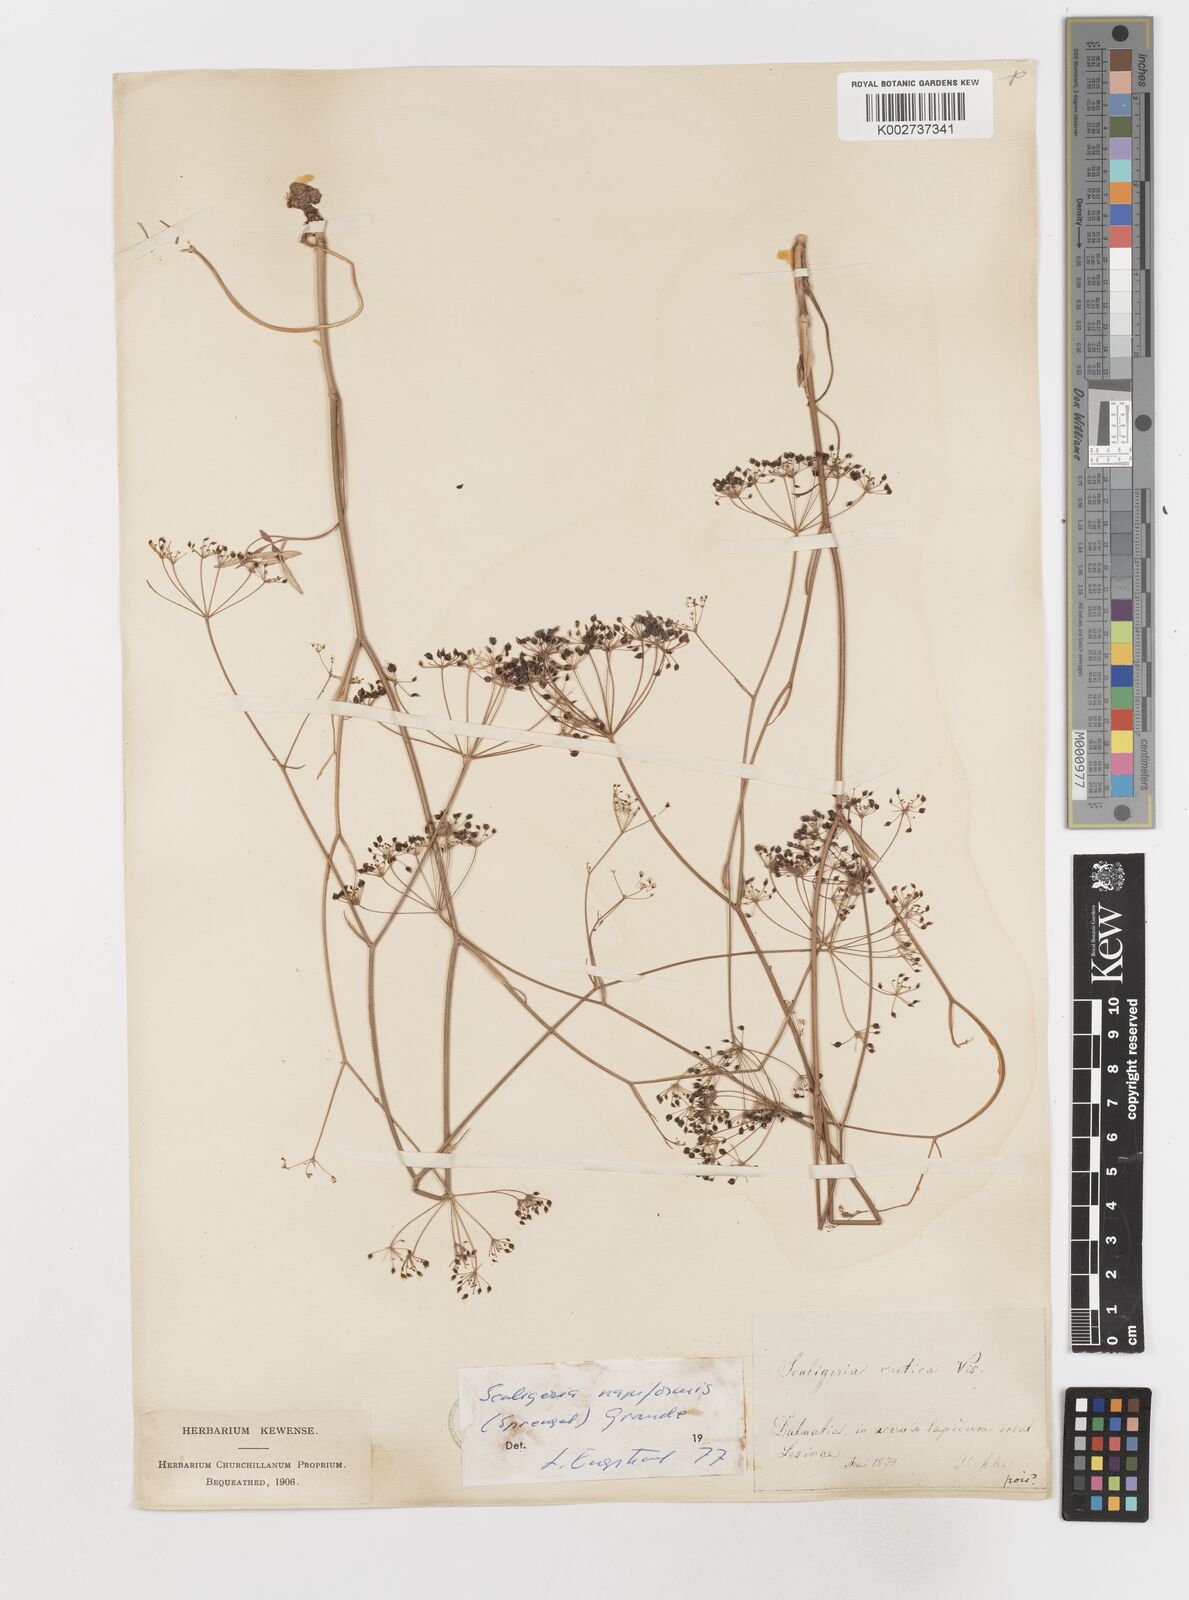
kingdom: Plantae
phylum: Tracheophyta
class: Magnoliopsida
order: Apiales
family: Apiaceae
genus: Scaligeria
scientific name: Scaligeria napiformis
